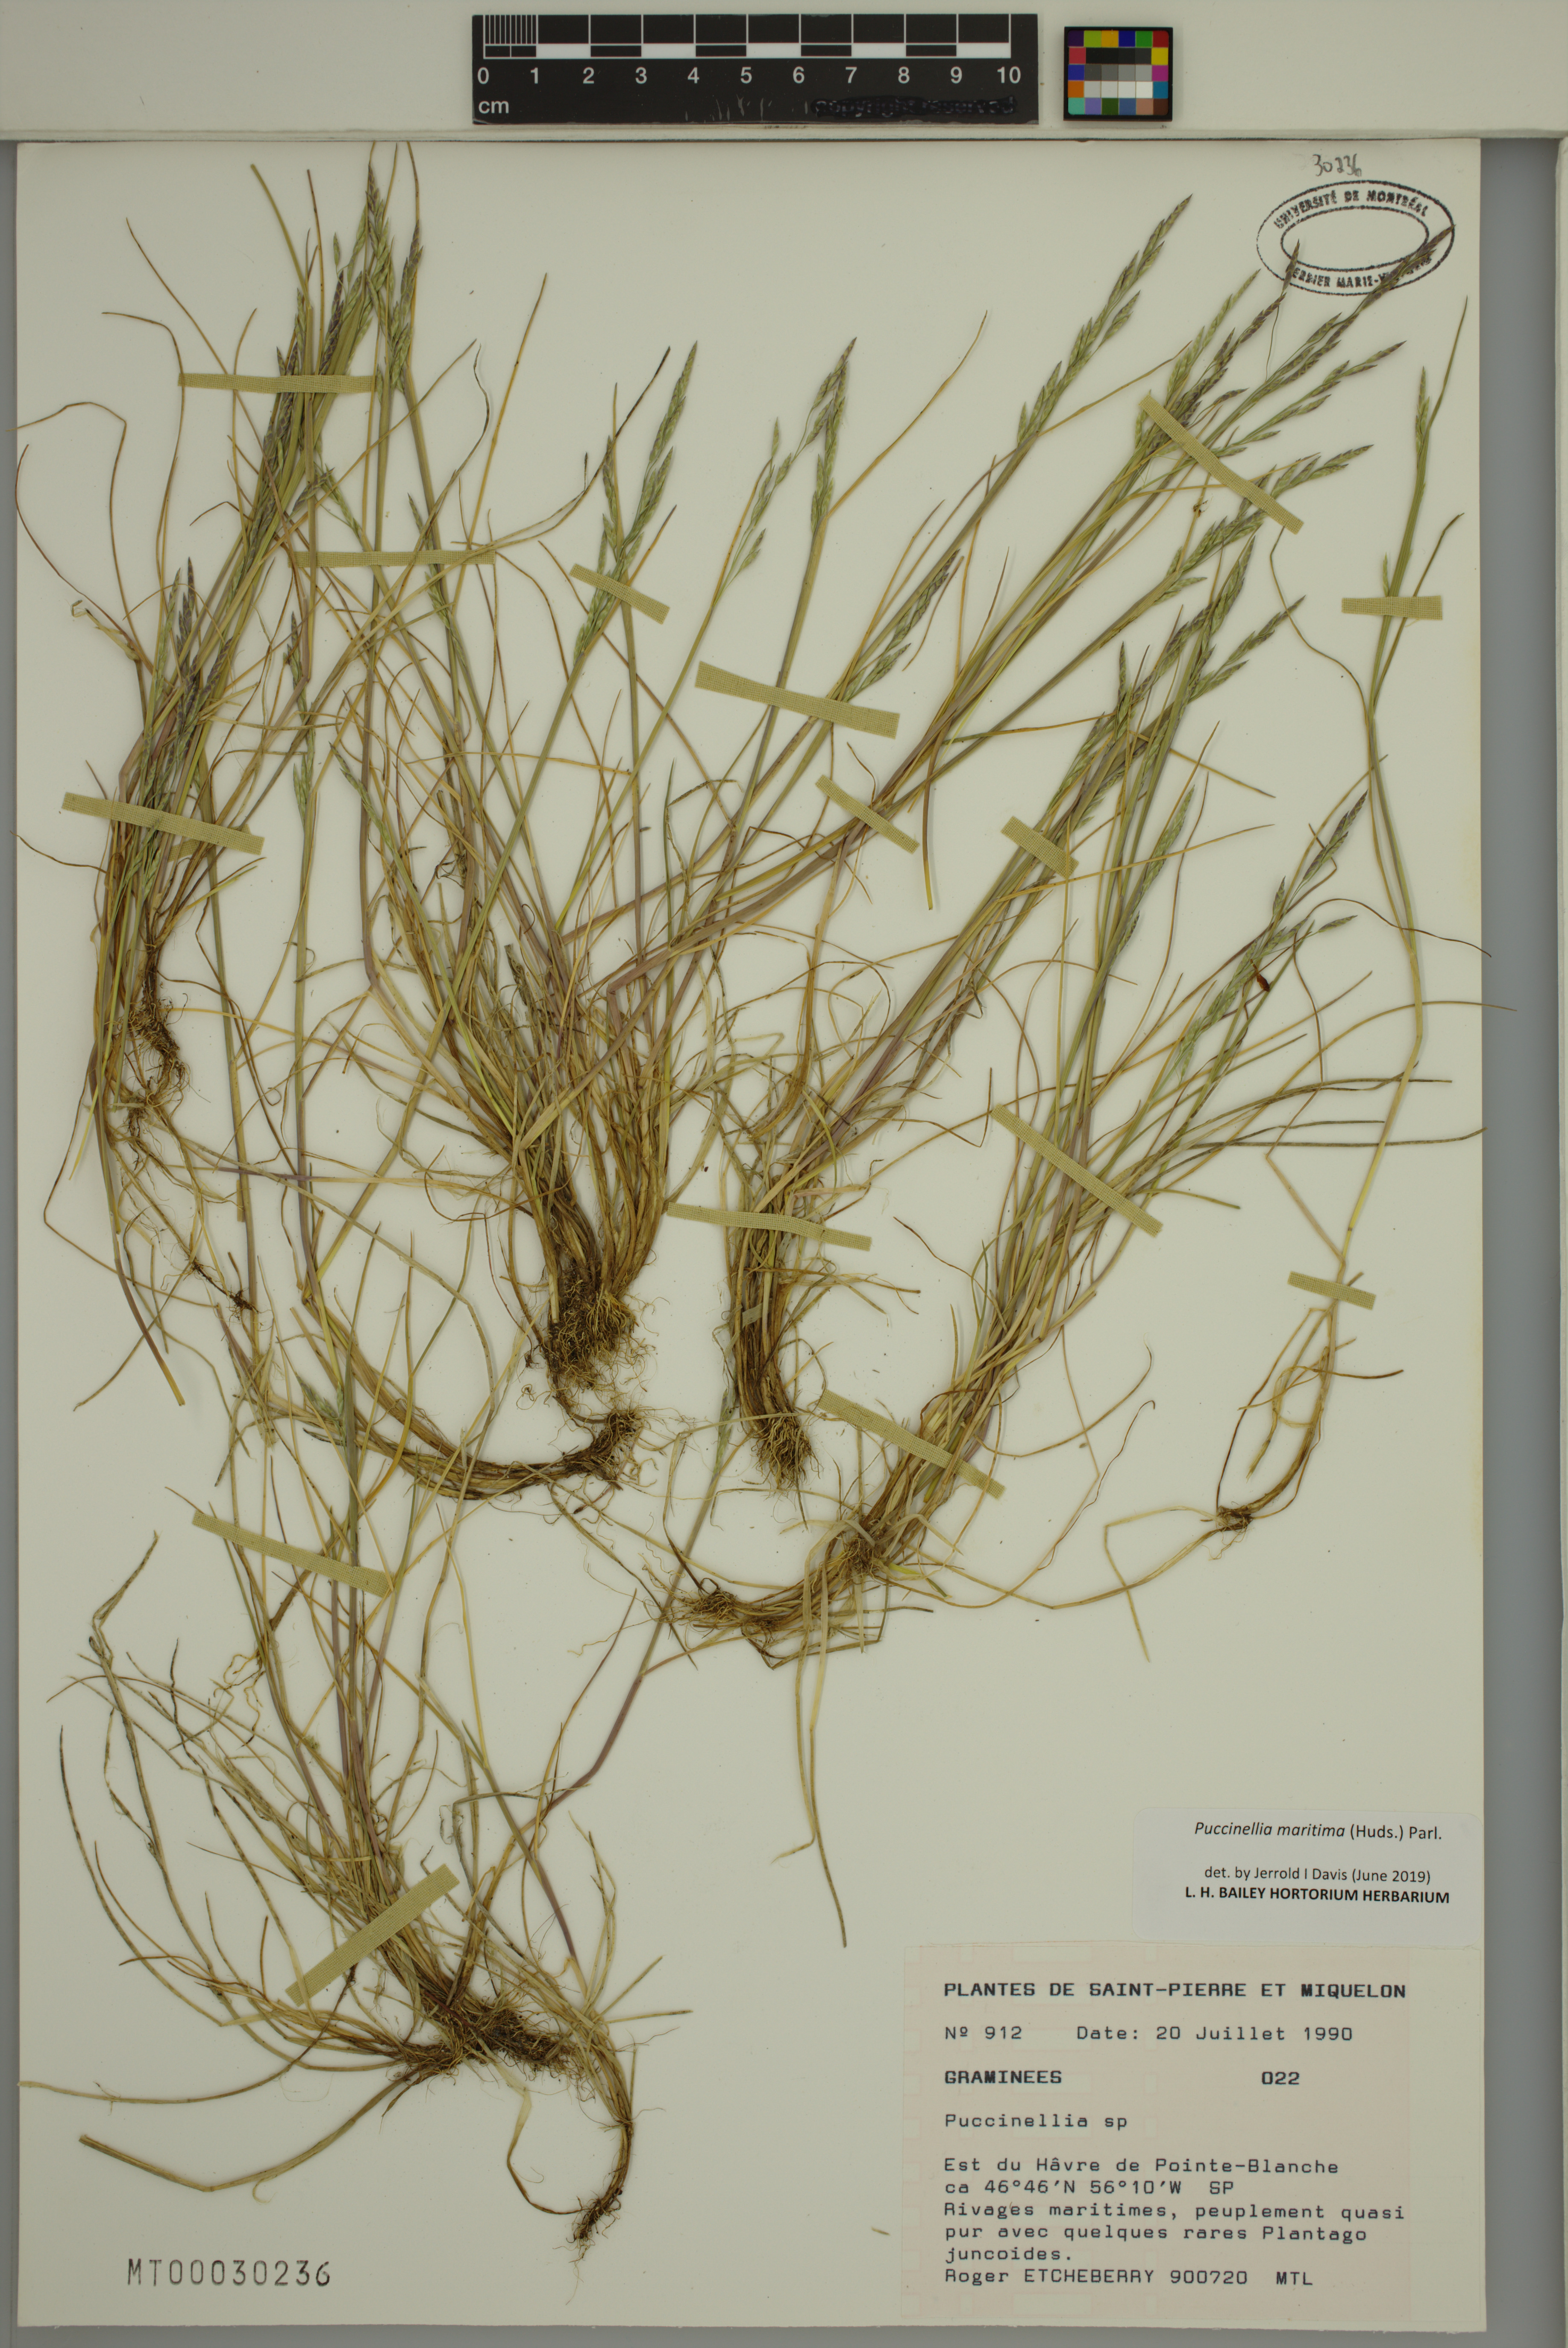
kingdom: Plantae
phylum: Tracheophyta
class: Liliopsida
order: Poales
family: Poaceae
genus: Puccinellia
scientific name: Puccinellia maritima
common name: Common saltmarsh grass
